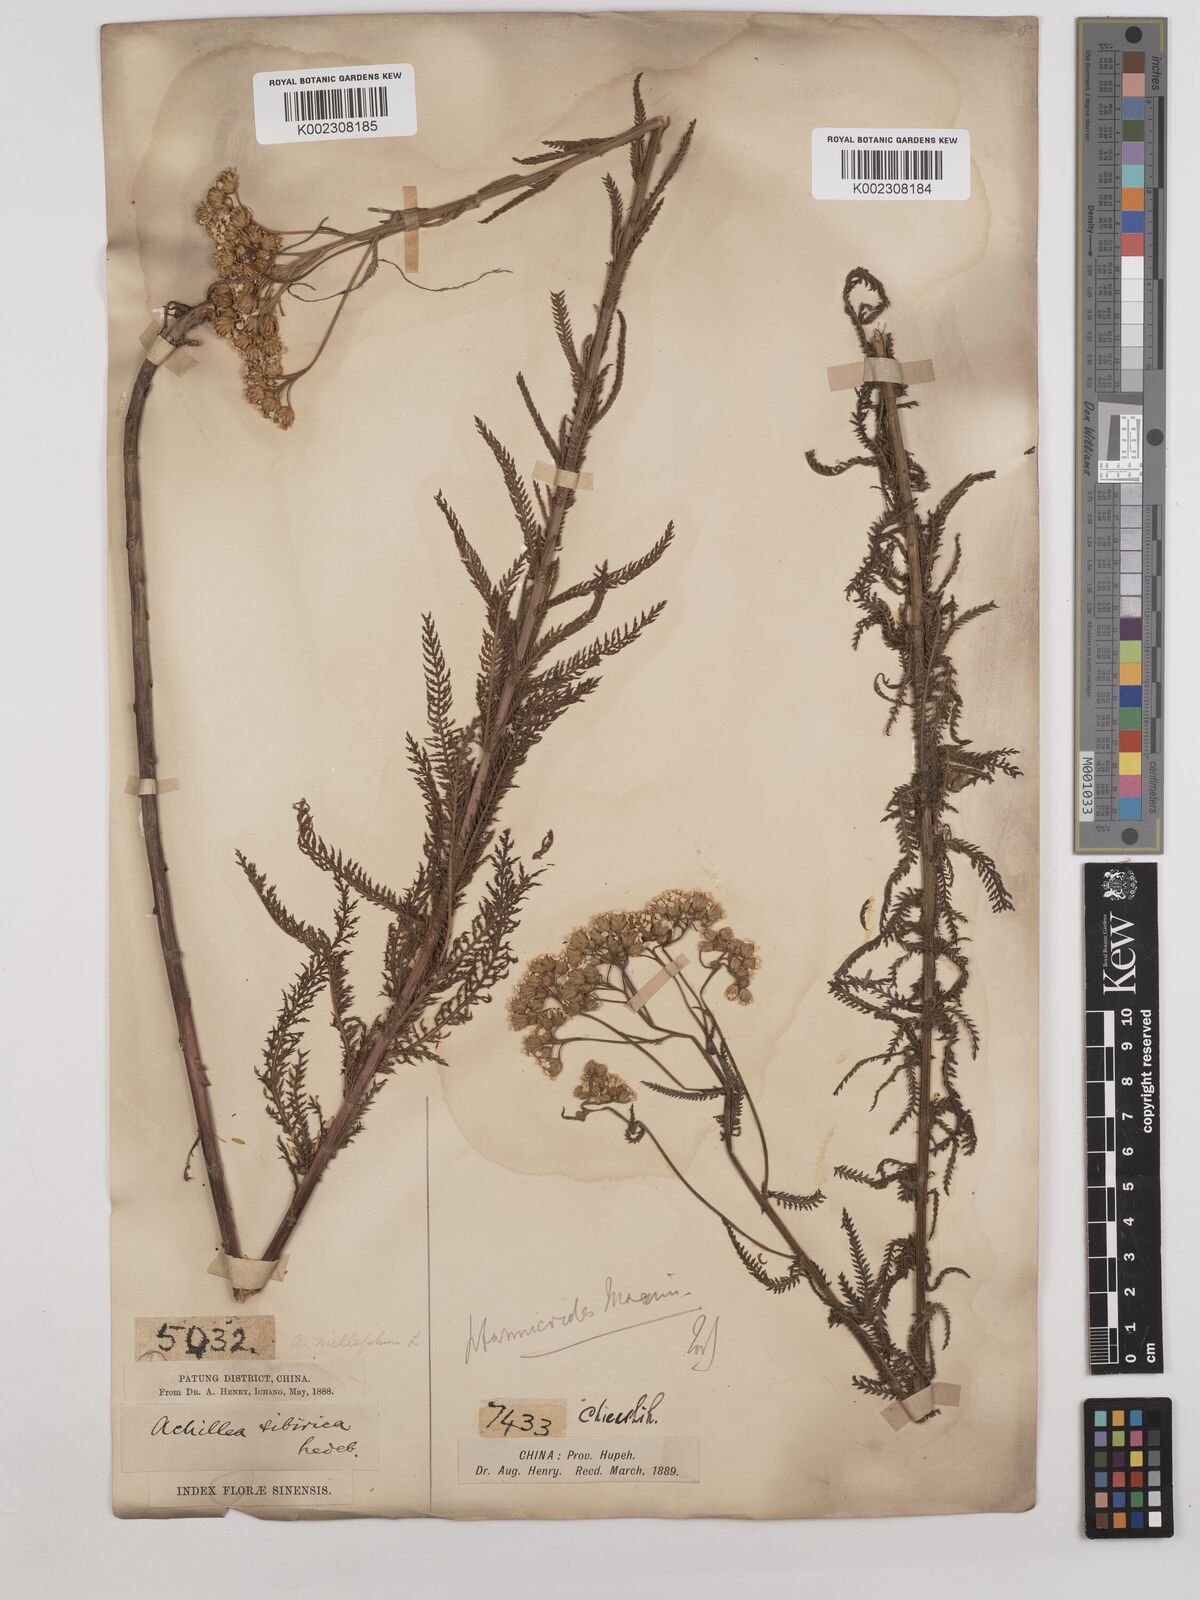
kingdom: Plantae
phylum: Tracheophyta
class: Magnoliopsida
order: Asterales
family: Asteraceae
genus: Achillea
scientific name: Achillea alpina
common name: Siberian yarrow
